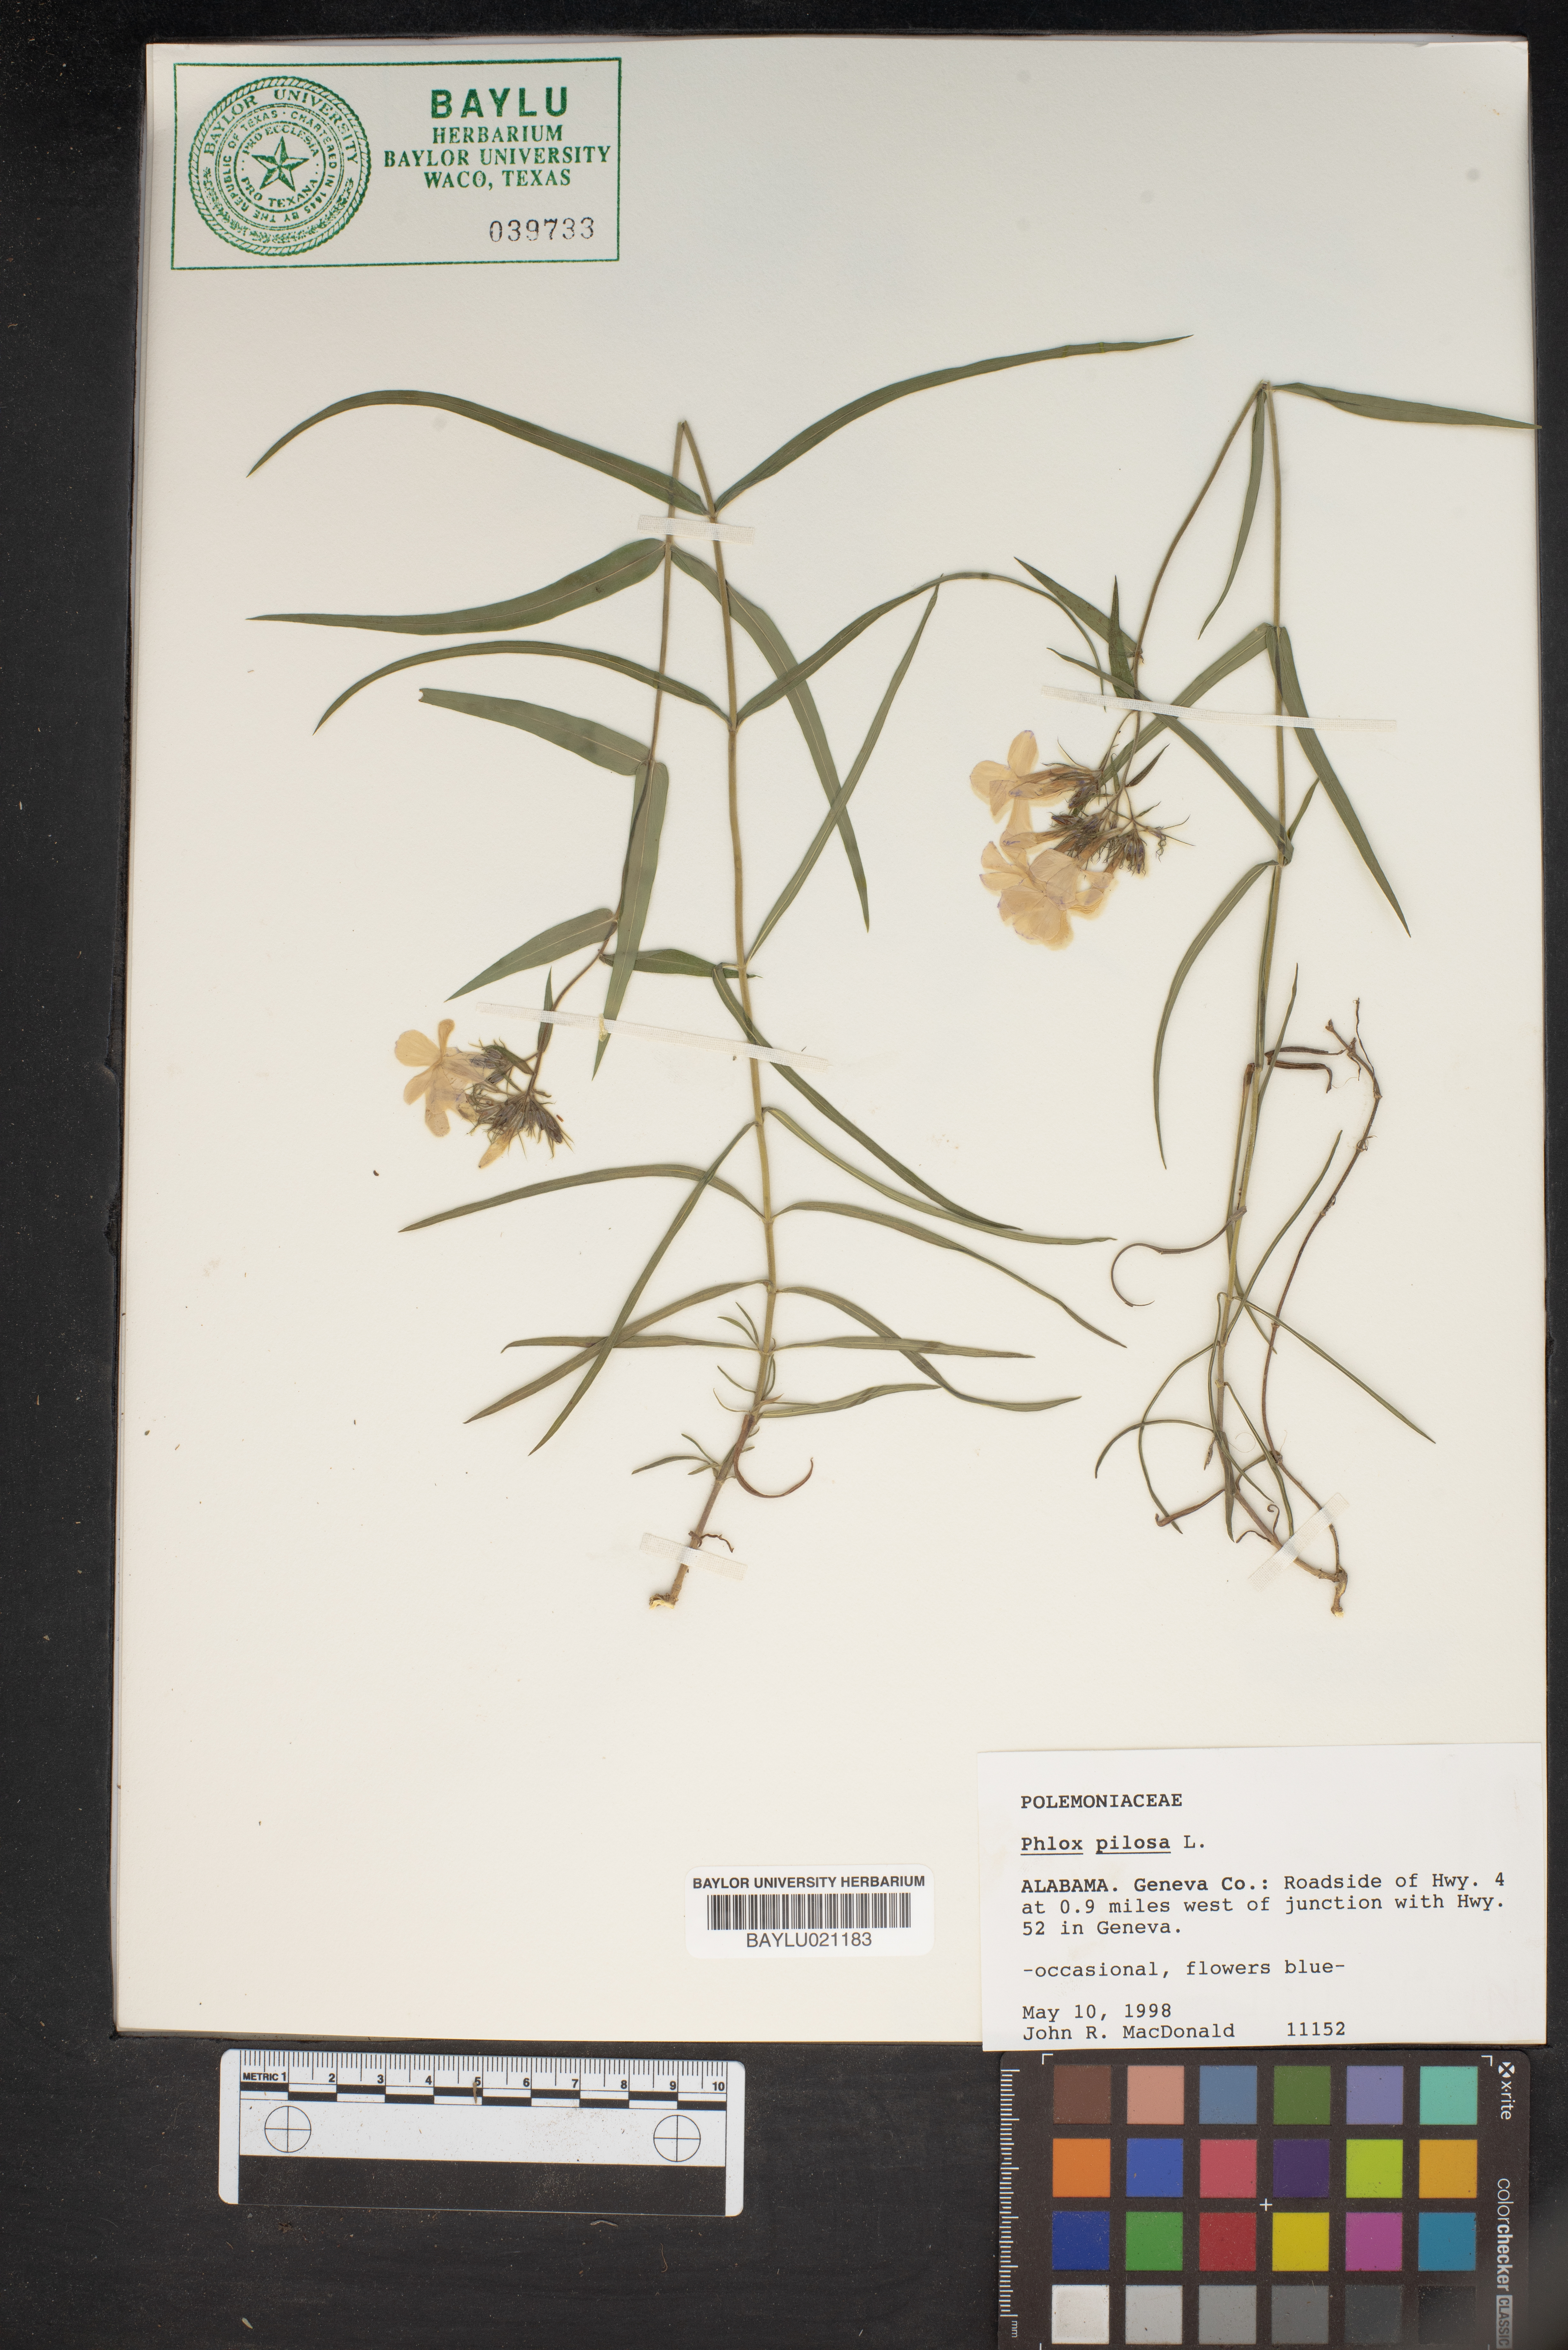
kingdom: Plantae
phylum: Tracheophyta
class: Magnoliopsida
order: Ericales
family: Polemoniaceae
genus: Phlox
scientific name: Phlox pilosa
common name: Prairie phlox
